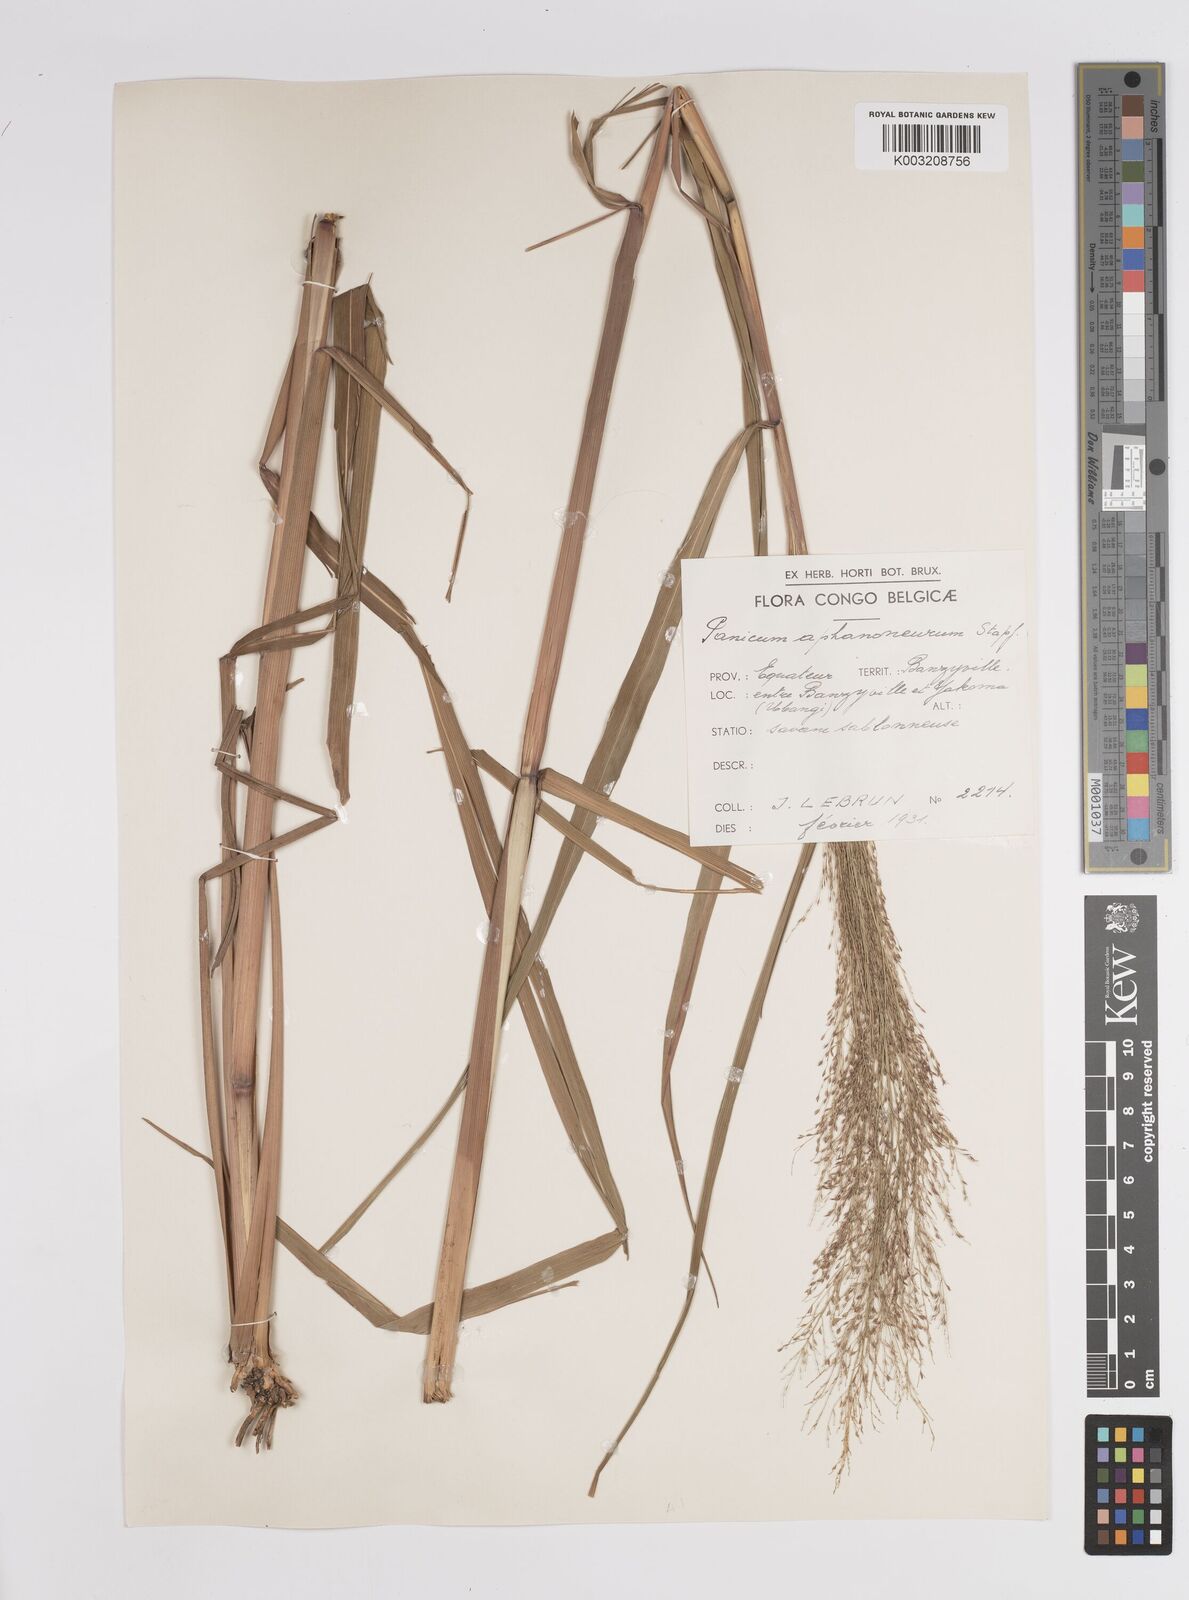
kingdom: Plantae
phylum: Tracheophyta
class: Liliopsida
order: Poales
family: Poaceae
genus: Panicum
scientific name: Panicum fluviicola
